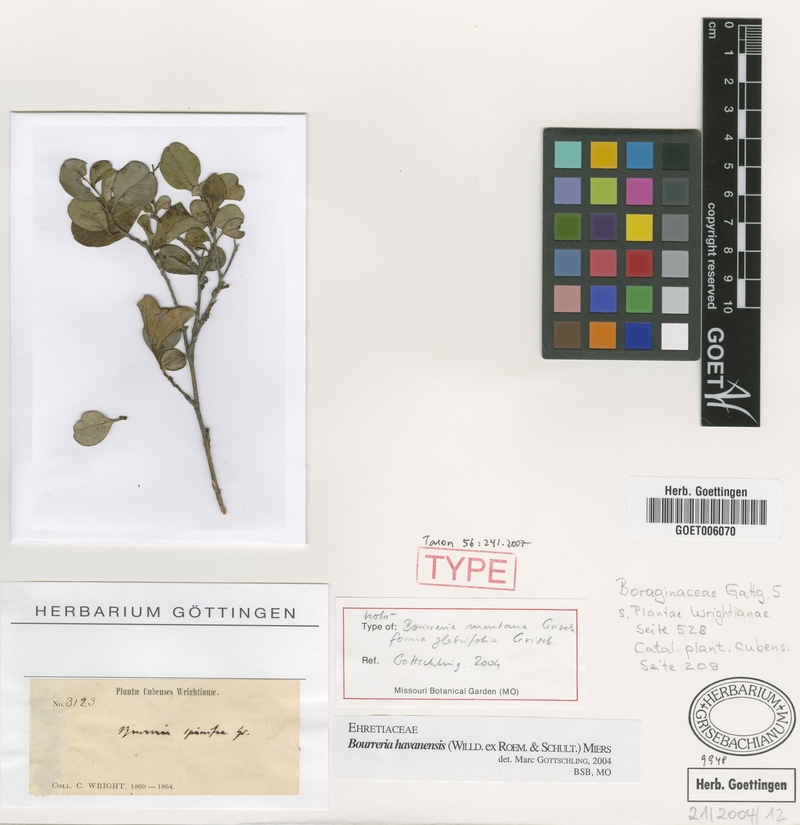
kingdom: Plantae
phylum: Tracheophyta
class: Magnoliopsida
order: Boraginales
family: Ehretiaceae
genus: Bourreria
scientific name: Bourreria havanensis
